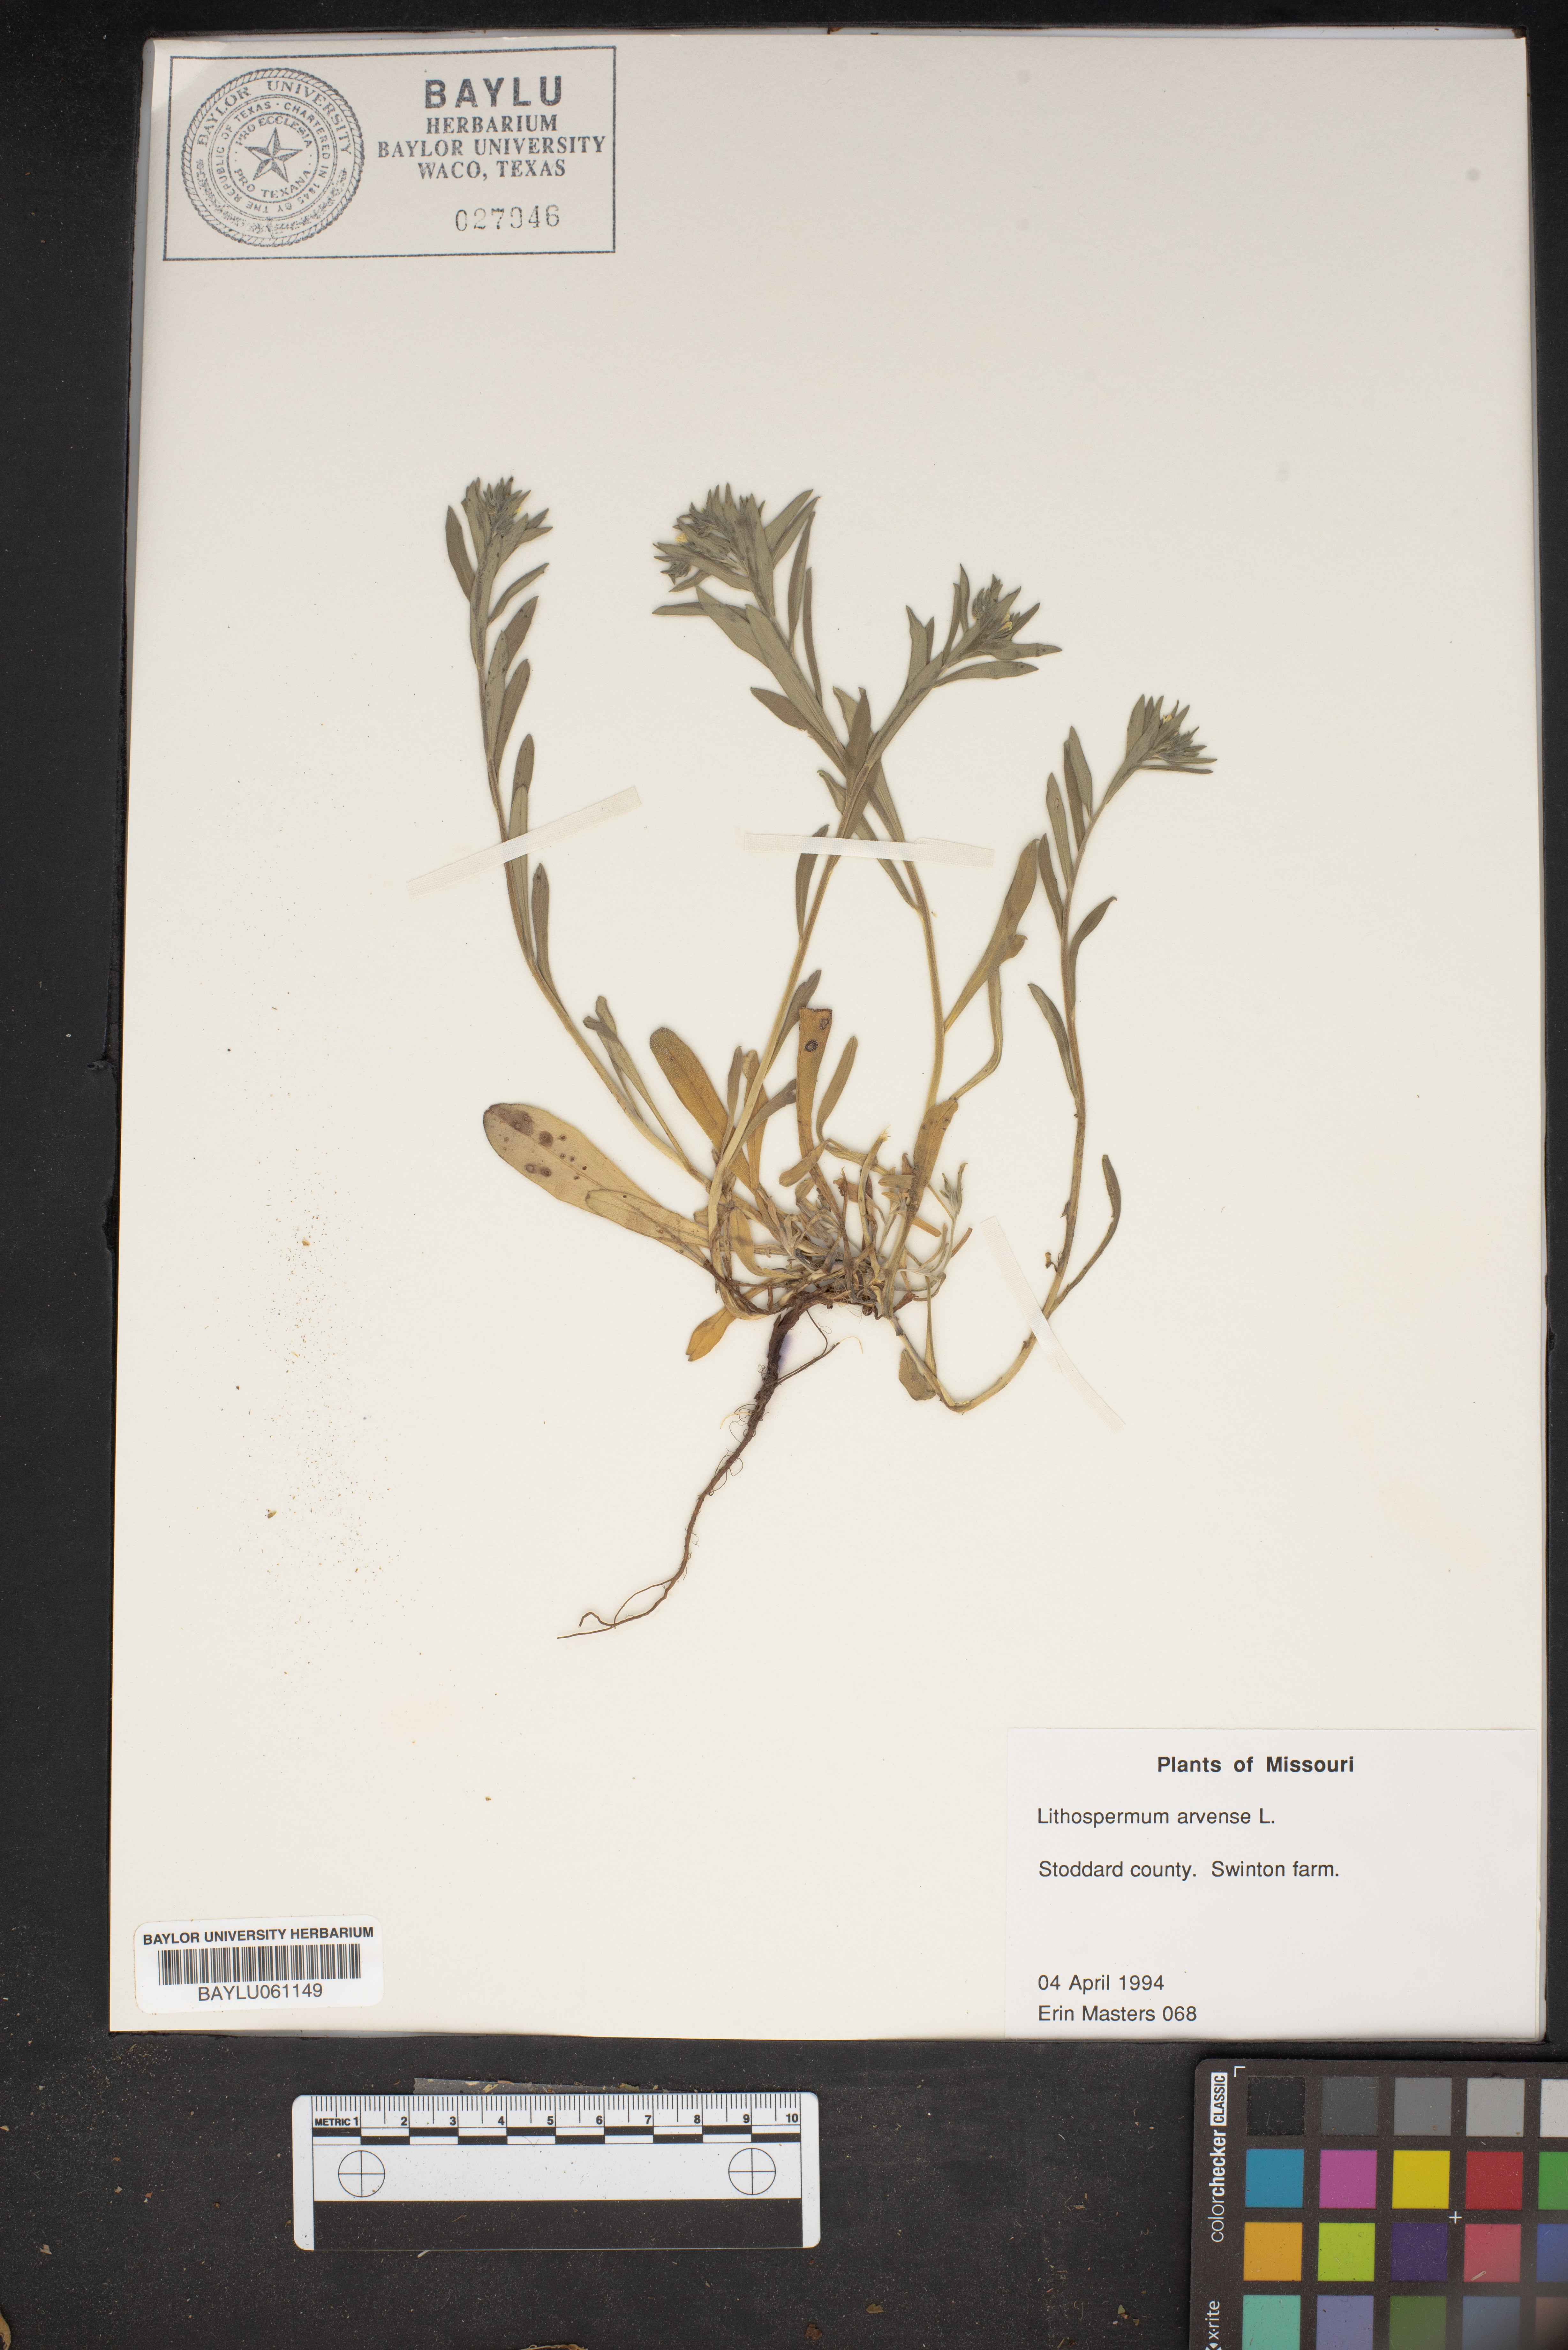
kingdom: Plantae
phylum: Tracheophyta
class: Magnoliopsida
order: Boraginales
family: Boraginaceae
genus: Lithospermum
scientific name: Lithospermum erythrorhizon
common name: Purple gromwell
